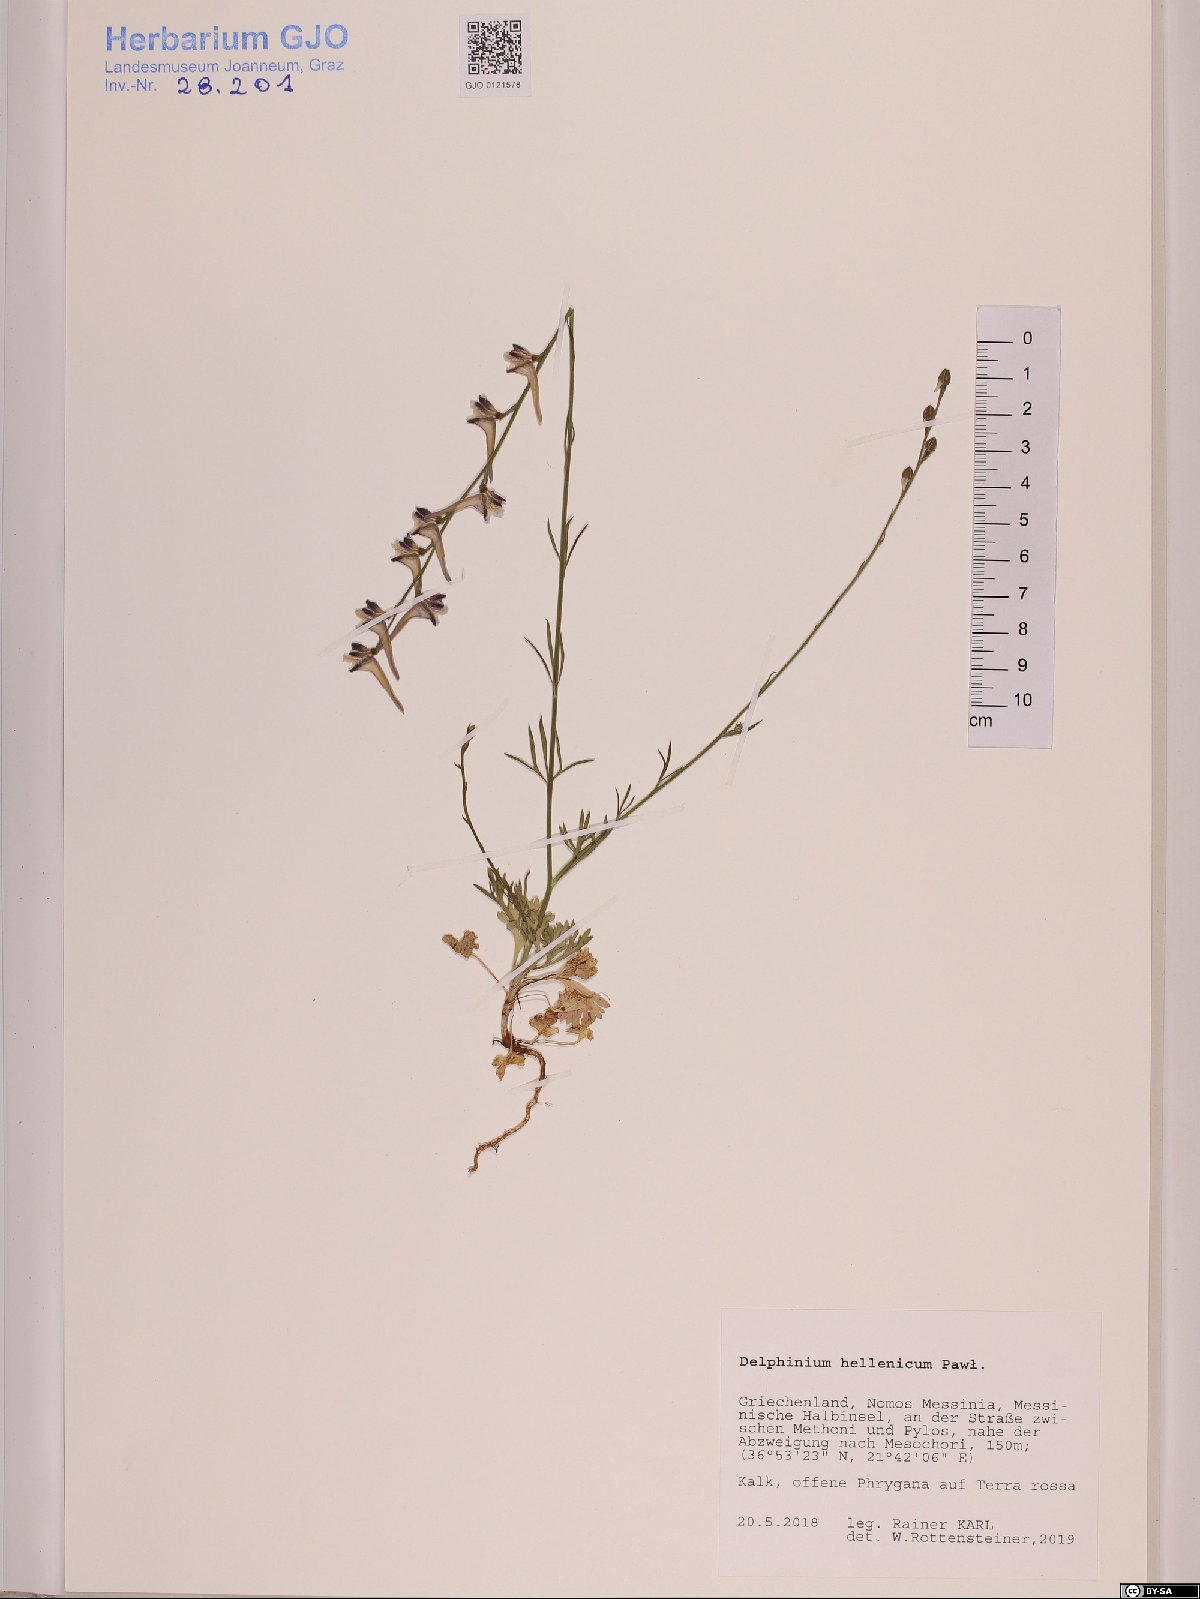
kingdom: Plantae
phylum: Tracheophyta
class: Magnoliopsida
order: Ranunculales
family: Ranunculaceae
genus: Delphinium
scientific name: Delphinium hellenicum
